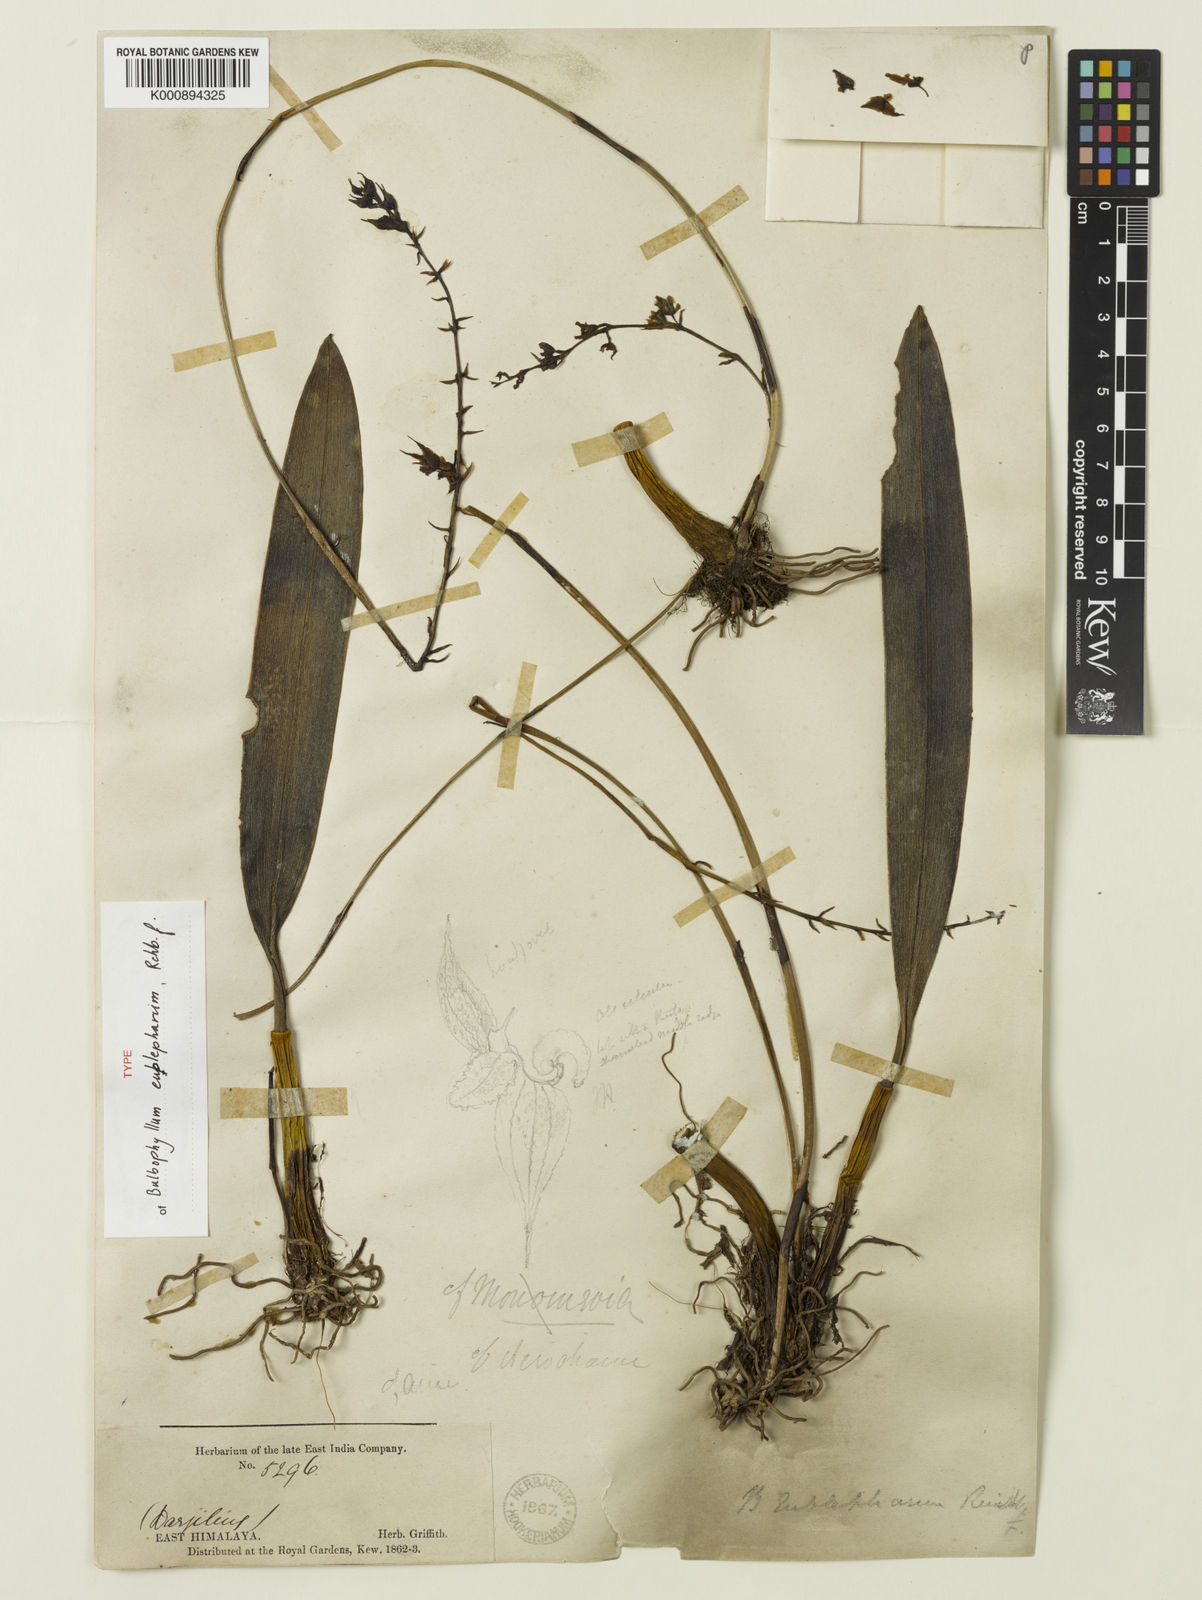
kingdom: Plantae
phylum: Tracheophyta
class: Liliopsida
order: Asparagales
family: Orchidaceae
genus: Bulbophyllum
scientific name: Bulbophyllum eublepharum
